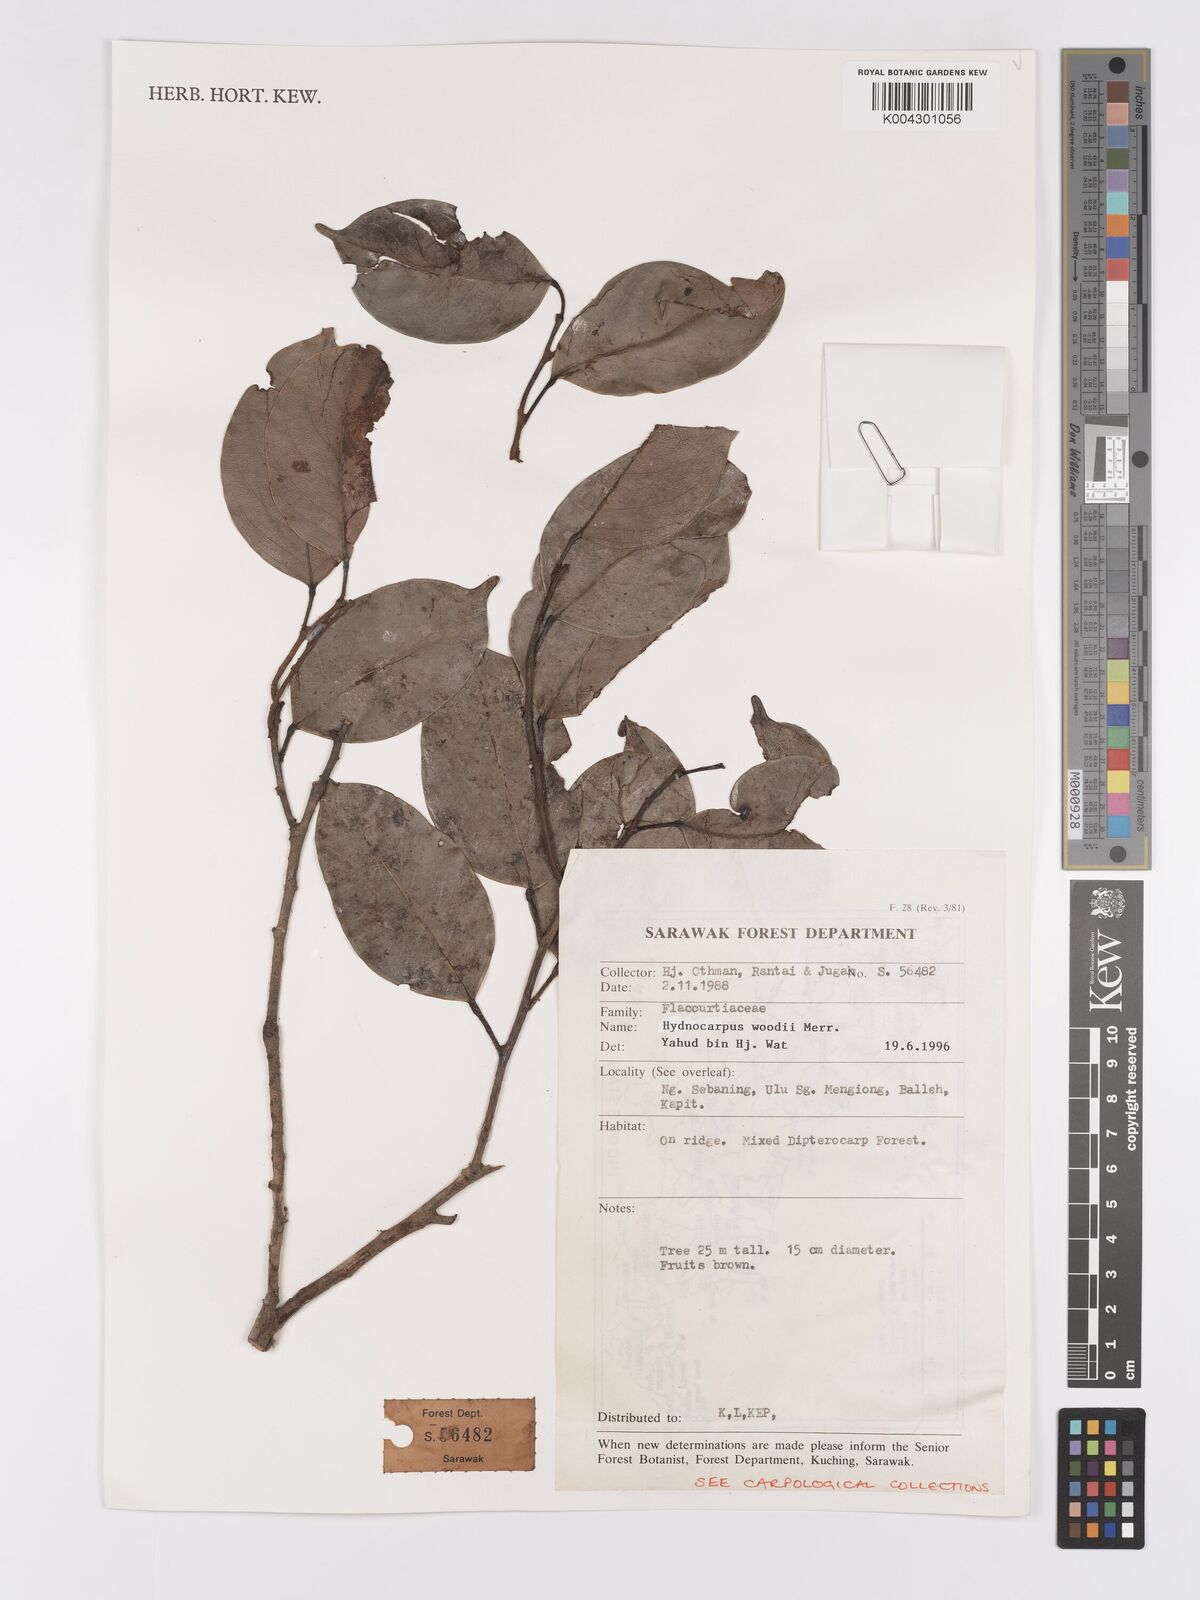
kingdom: Plantae
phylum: Tracheophyta
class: Magnoliopsida
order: Malpighiales
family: Achariaceae
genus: Hydnocarpus
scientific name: Hydnocarpus woodii
